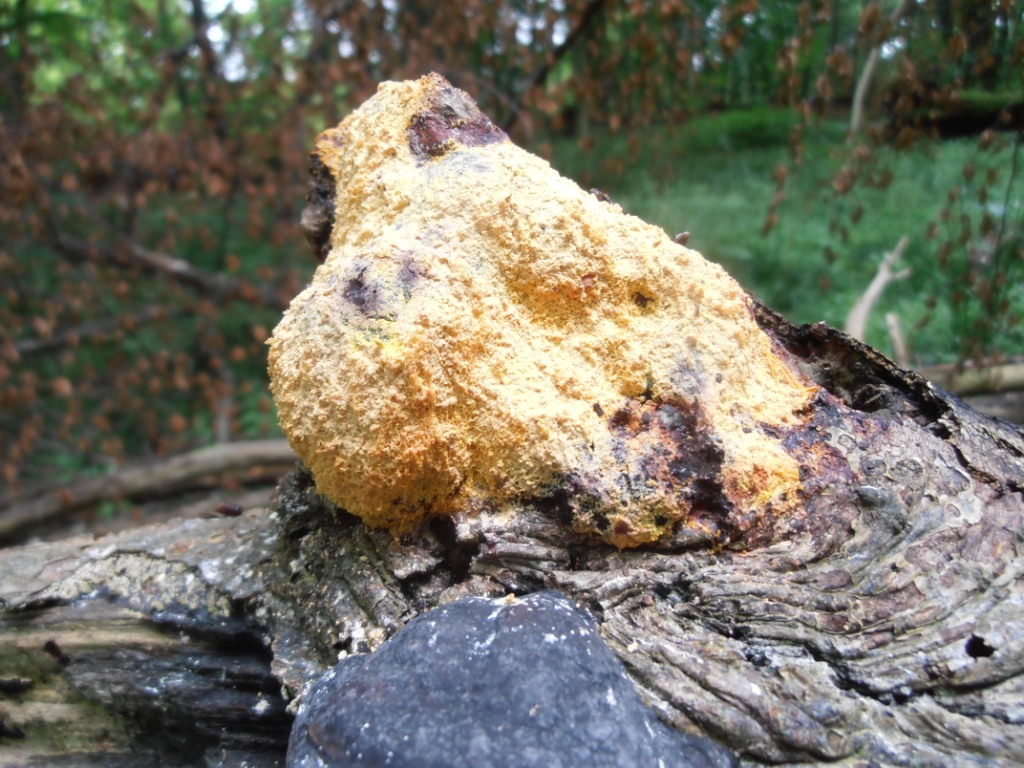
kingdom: Protozoa
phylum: Mycetozoa
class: Myxomycetes
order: Physarales
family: Physaraceae
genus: Fuligo
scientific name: Fuligo septica
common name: gul troldsmør
